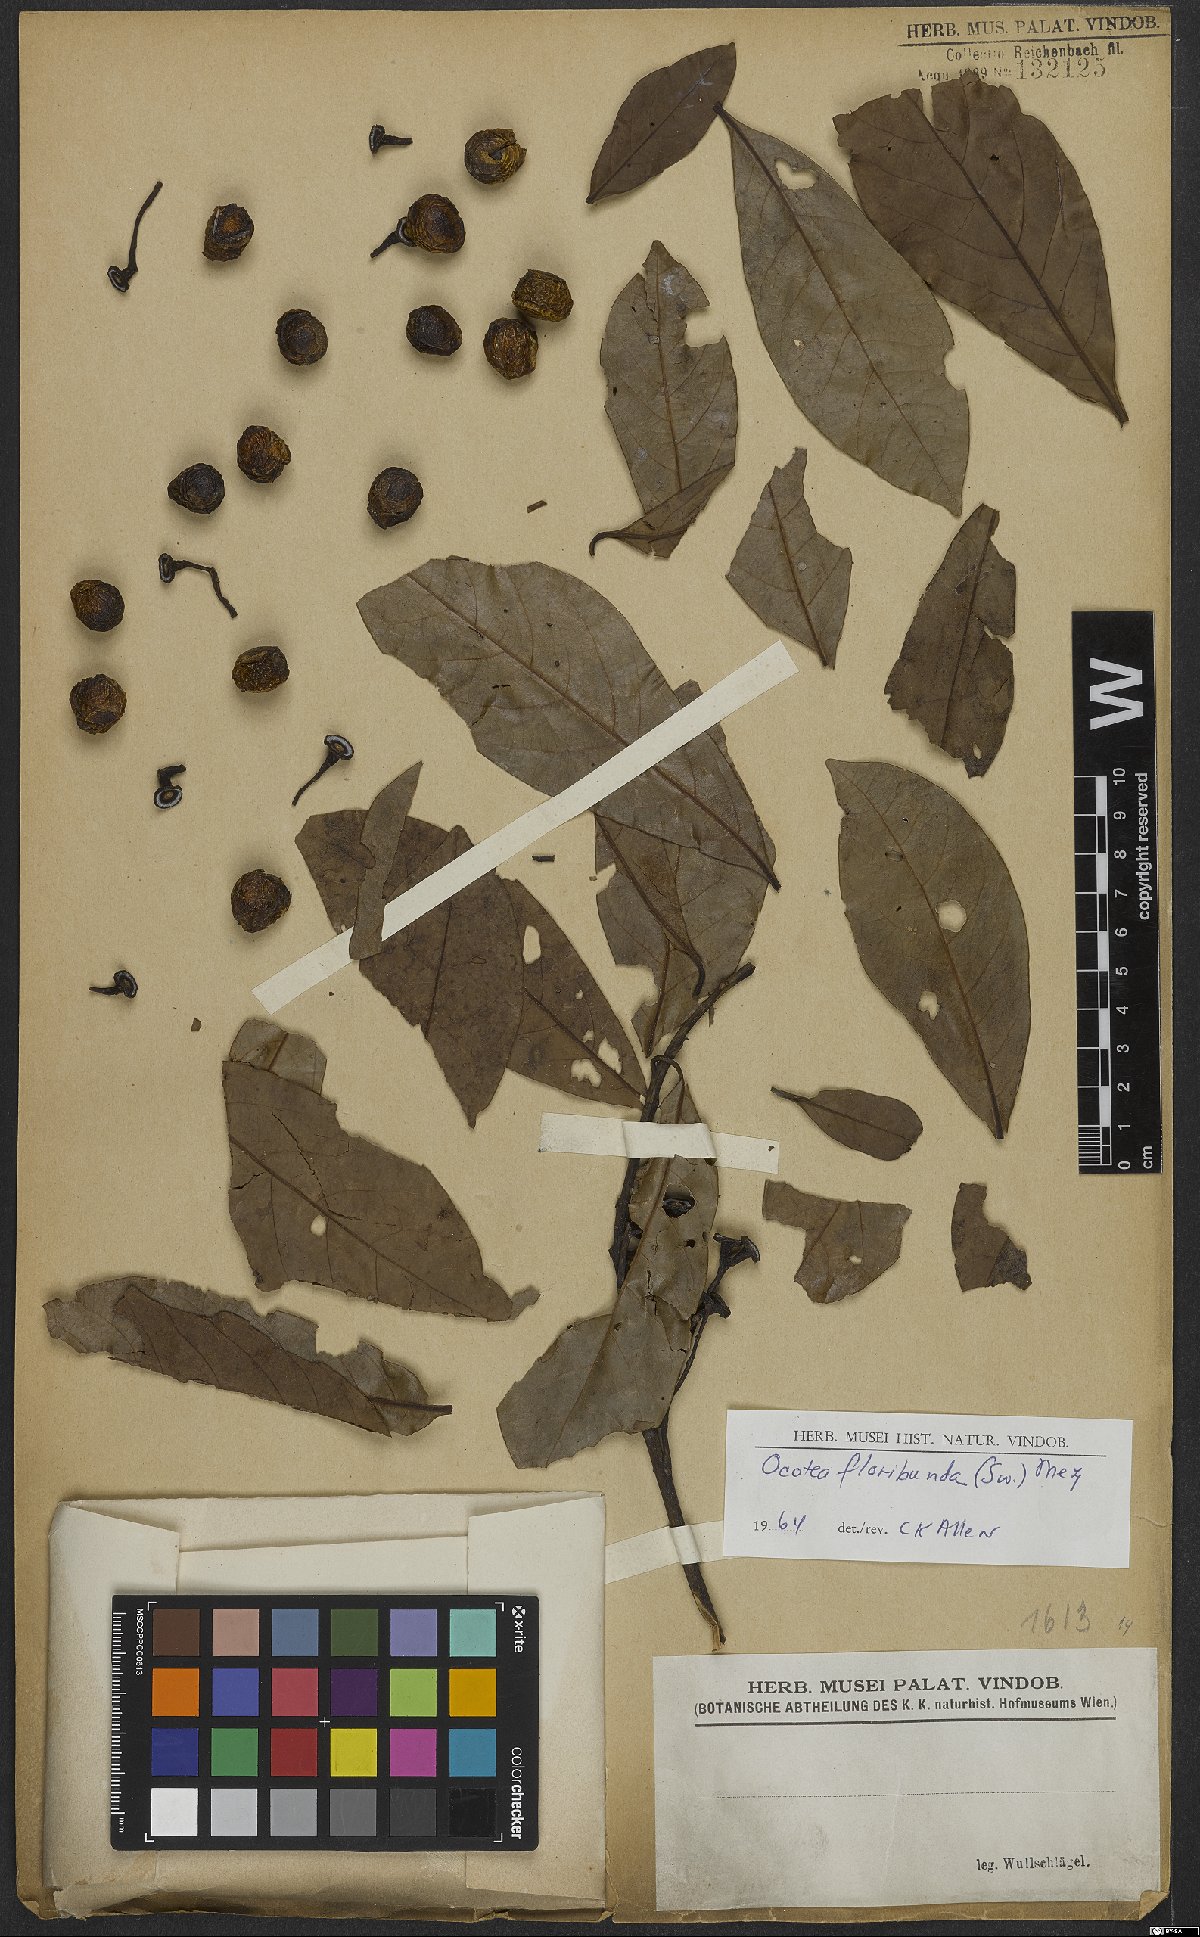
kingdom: Plantae
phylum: Tracheophyta
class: Magnoliopsida
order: Laurales
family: Lauraceae
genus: Ocotea
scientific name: Ocotea floribunda
